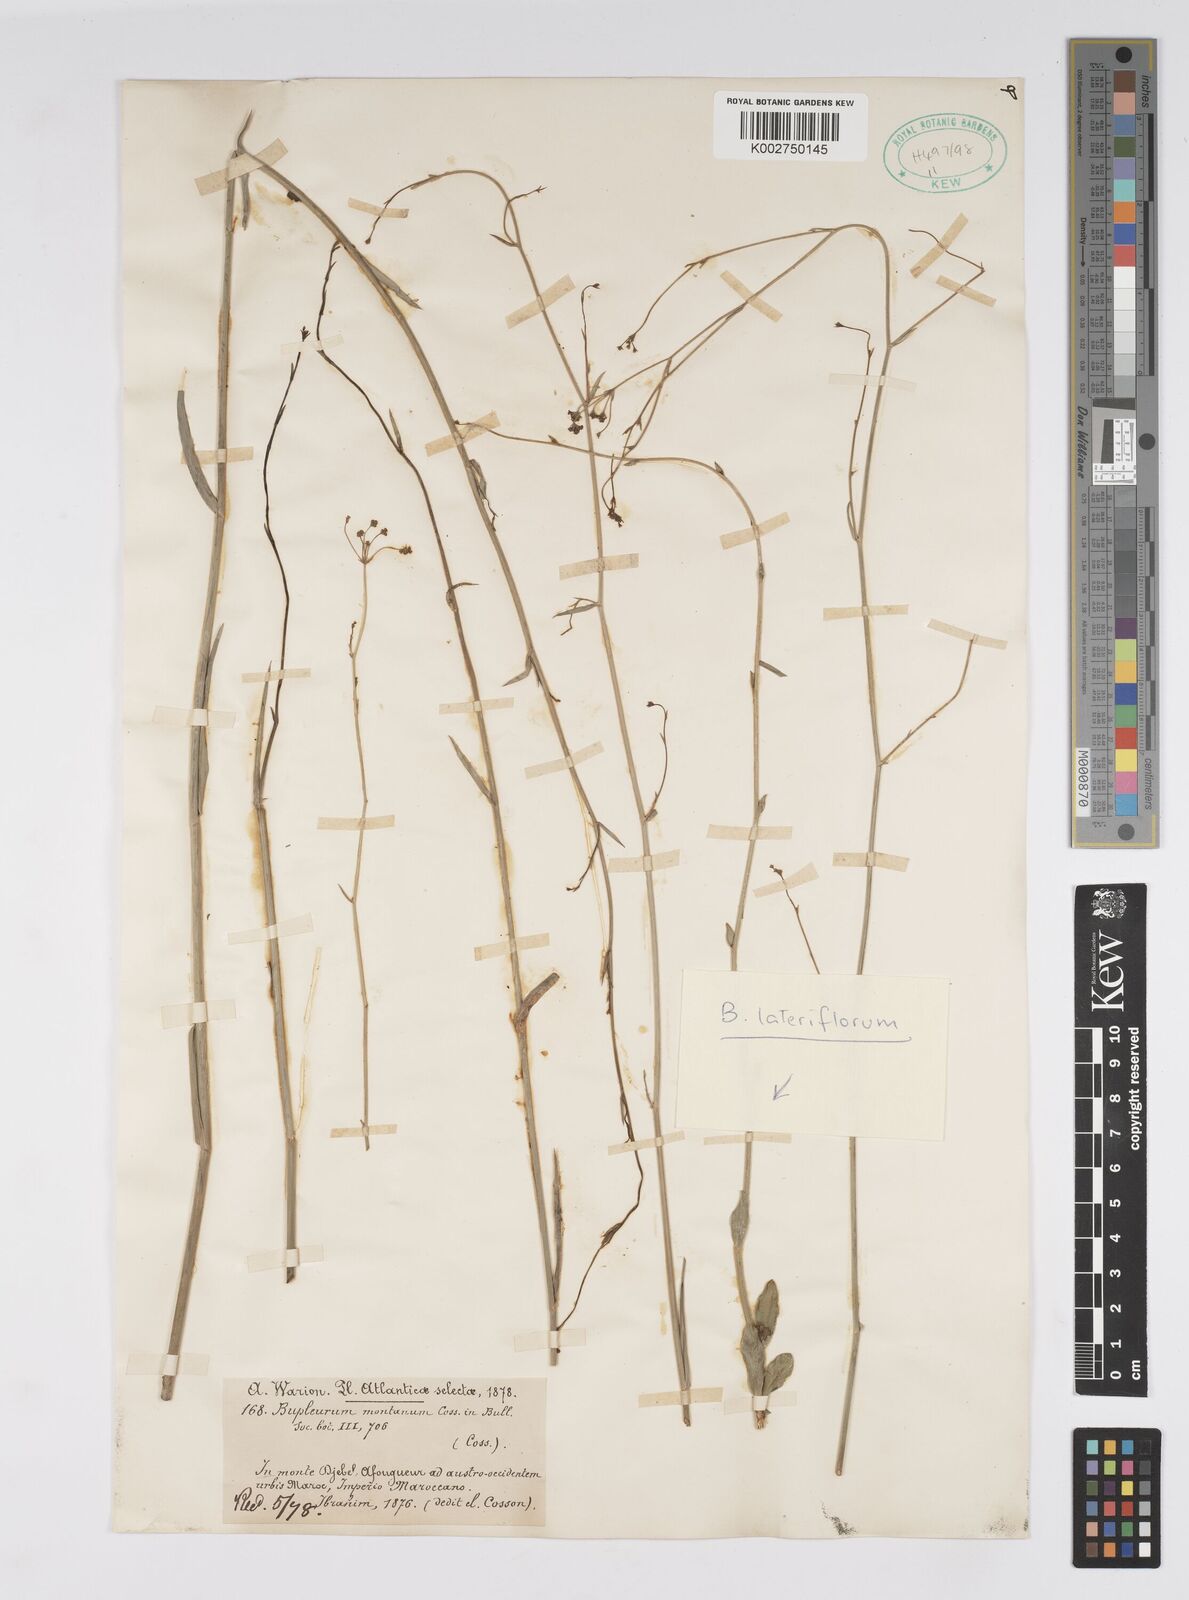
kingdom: Plantae
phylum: Tracheophyta
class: Magnoliopsida
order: Apiales
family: Apiaceae
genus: Bupleurum
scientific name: Bupleurum lateriflorum
